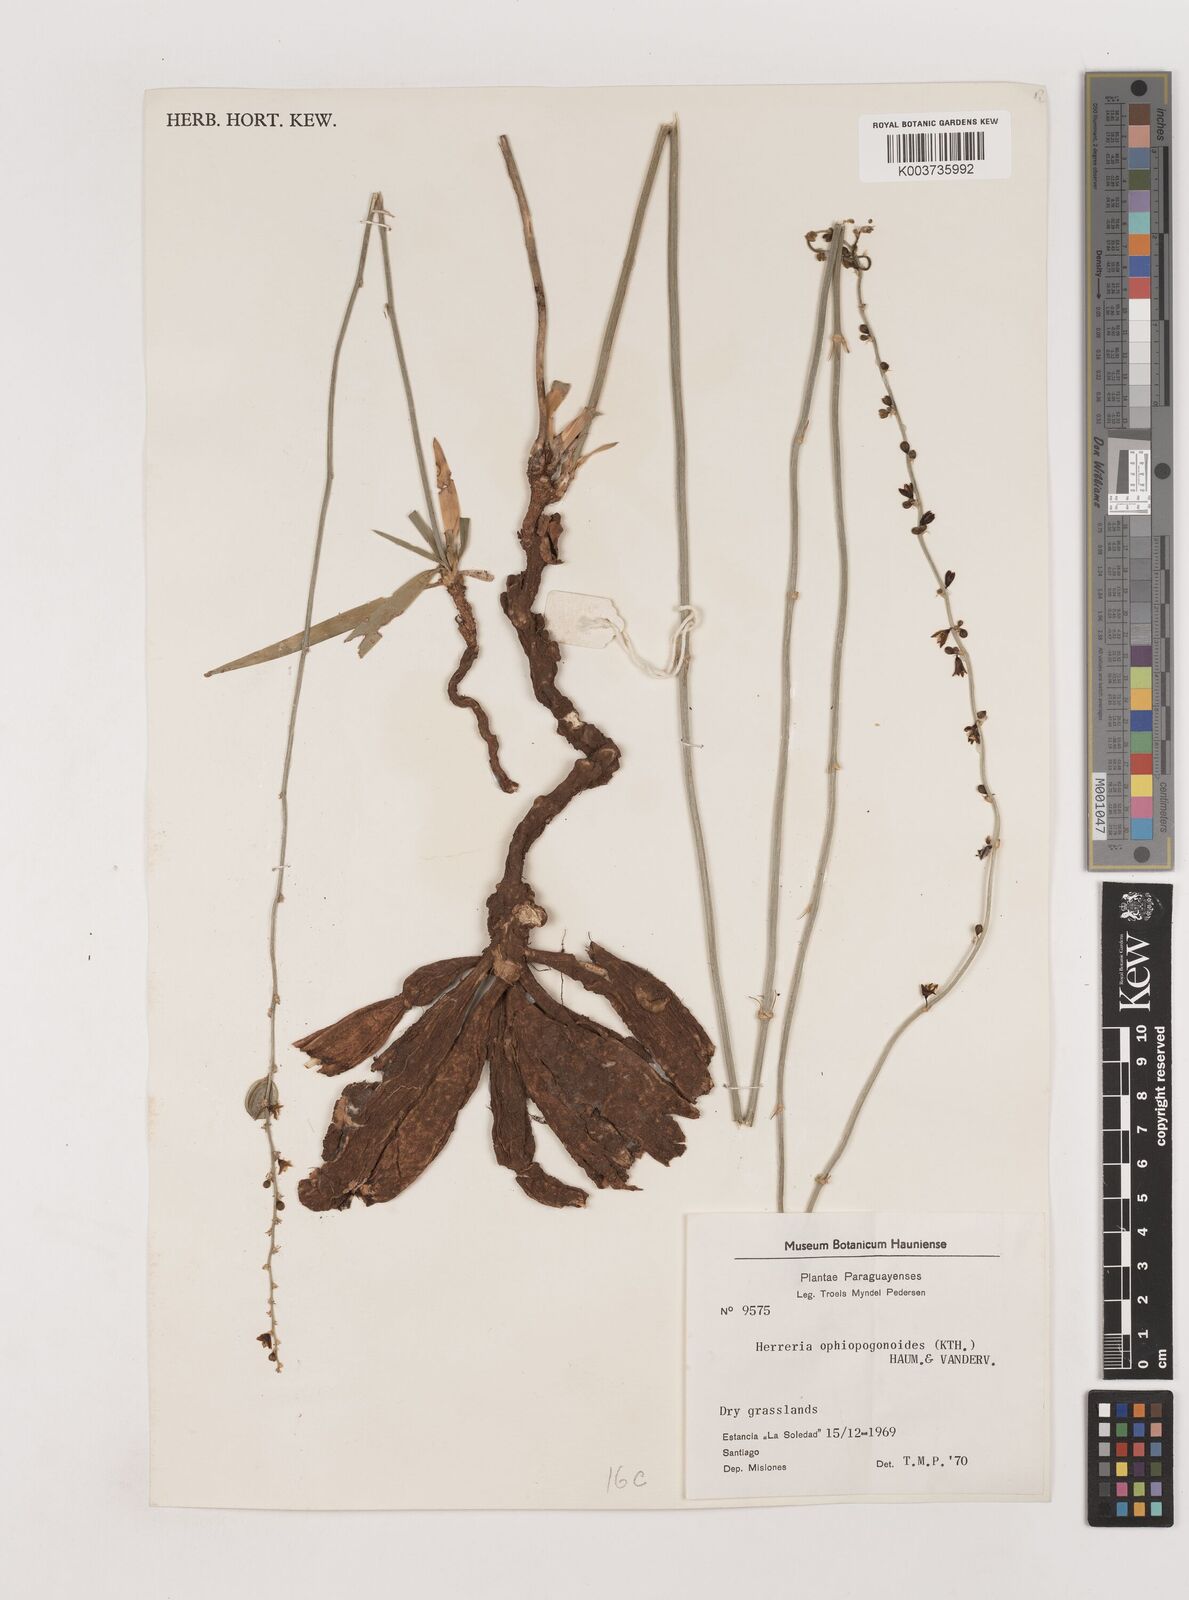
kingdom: Plantae
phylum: Tracheophyta
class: Liliopsida
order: Asparagales
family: Asparagaceae
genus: Clara
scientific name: Clara ophiopogonoides
